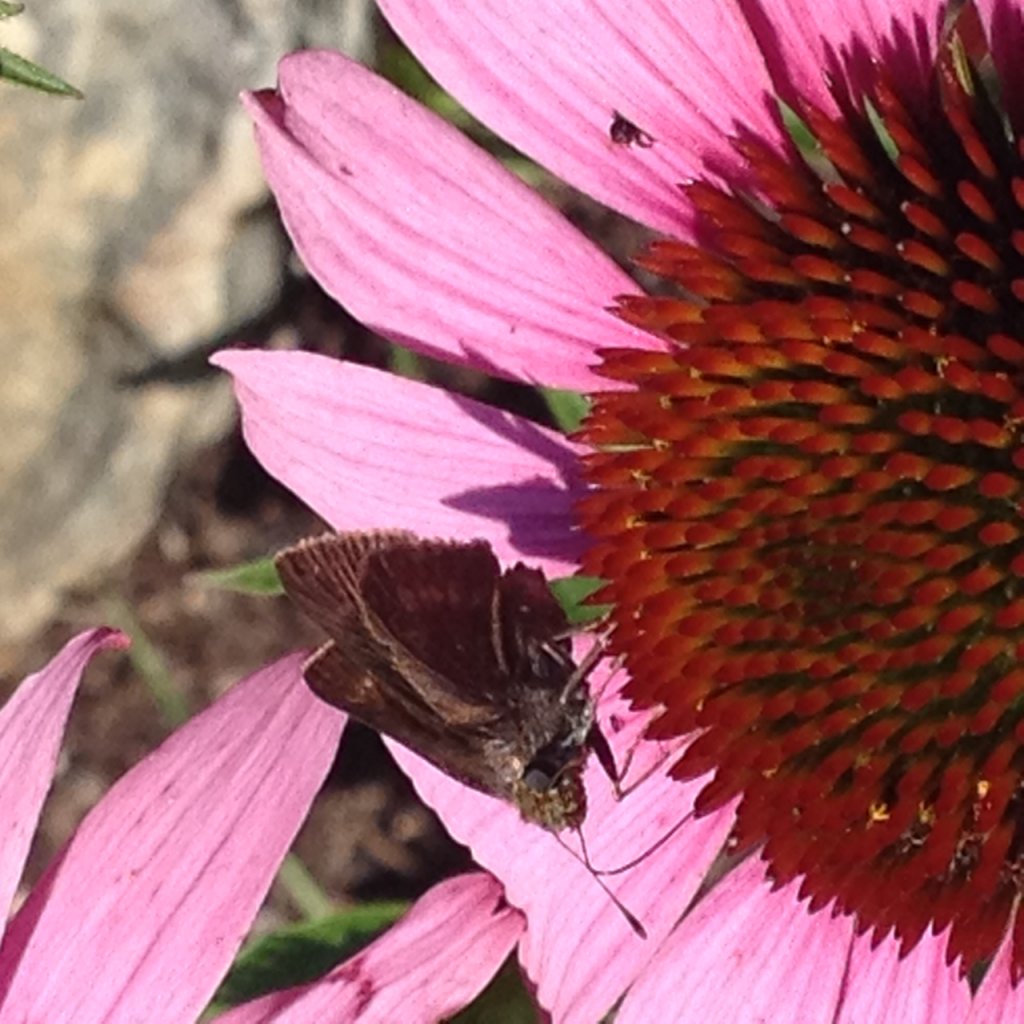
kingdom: Animalia
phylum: Arthropoda
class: Insecta
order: Lepidoptera
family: Hesperiidae
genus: Euphyes
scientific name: Euphyes vestris
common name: Dun Skipper
